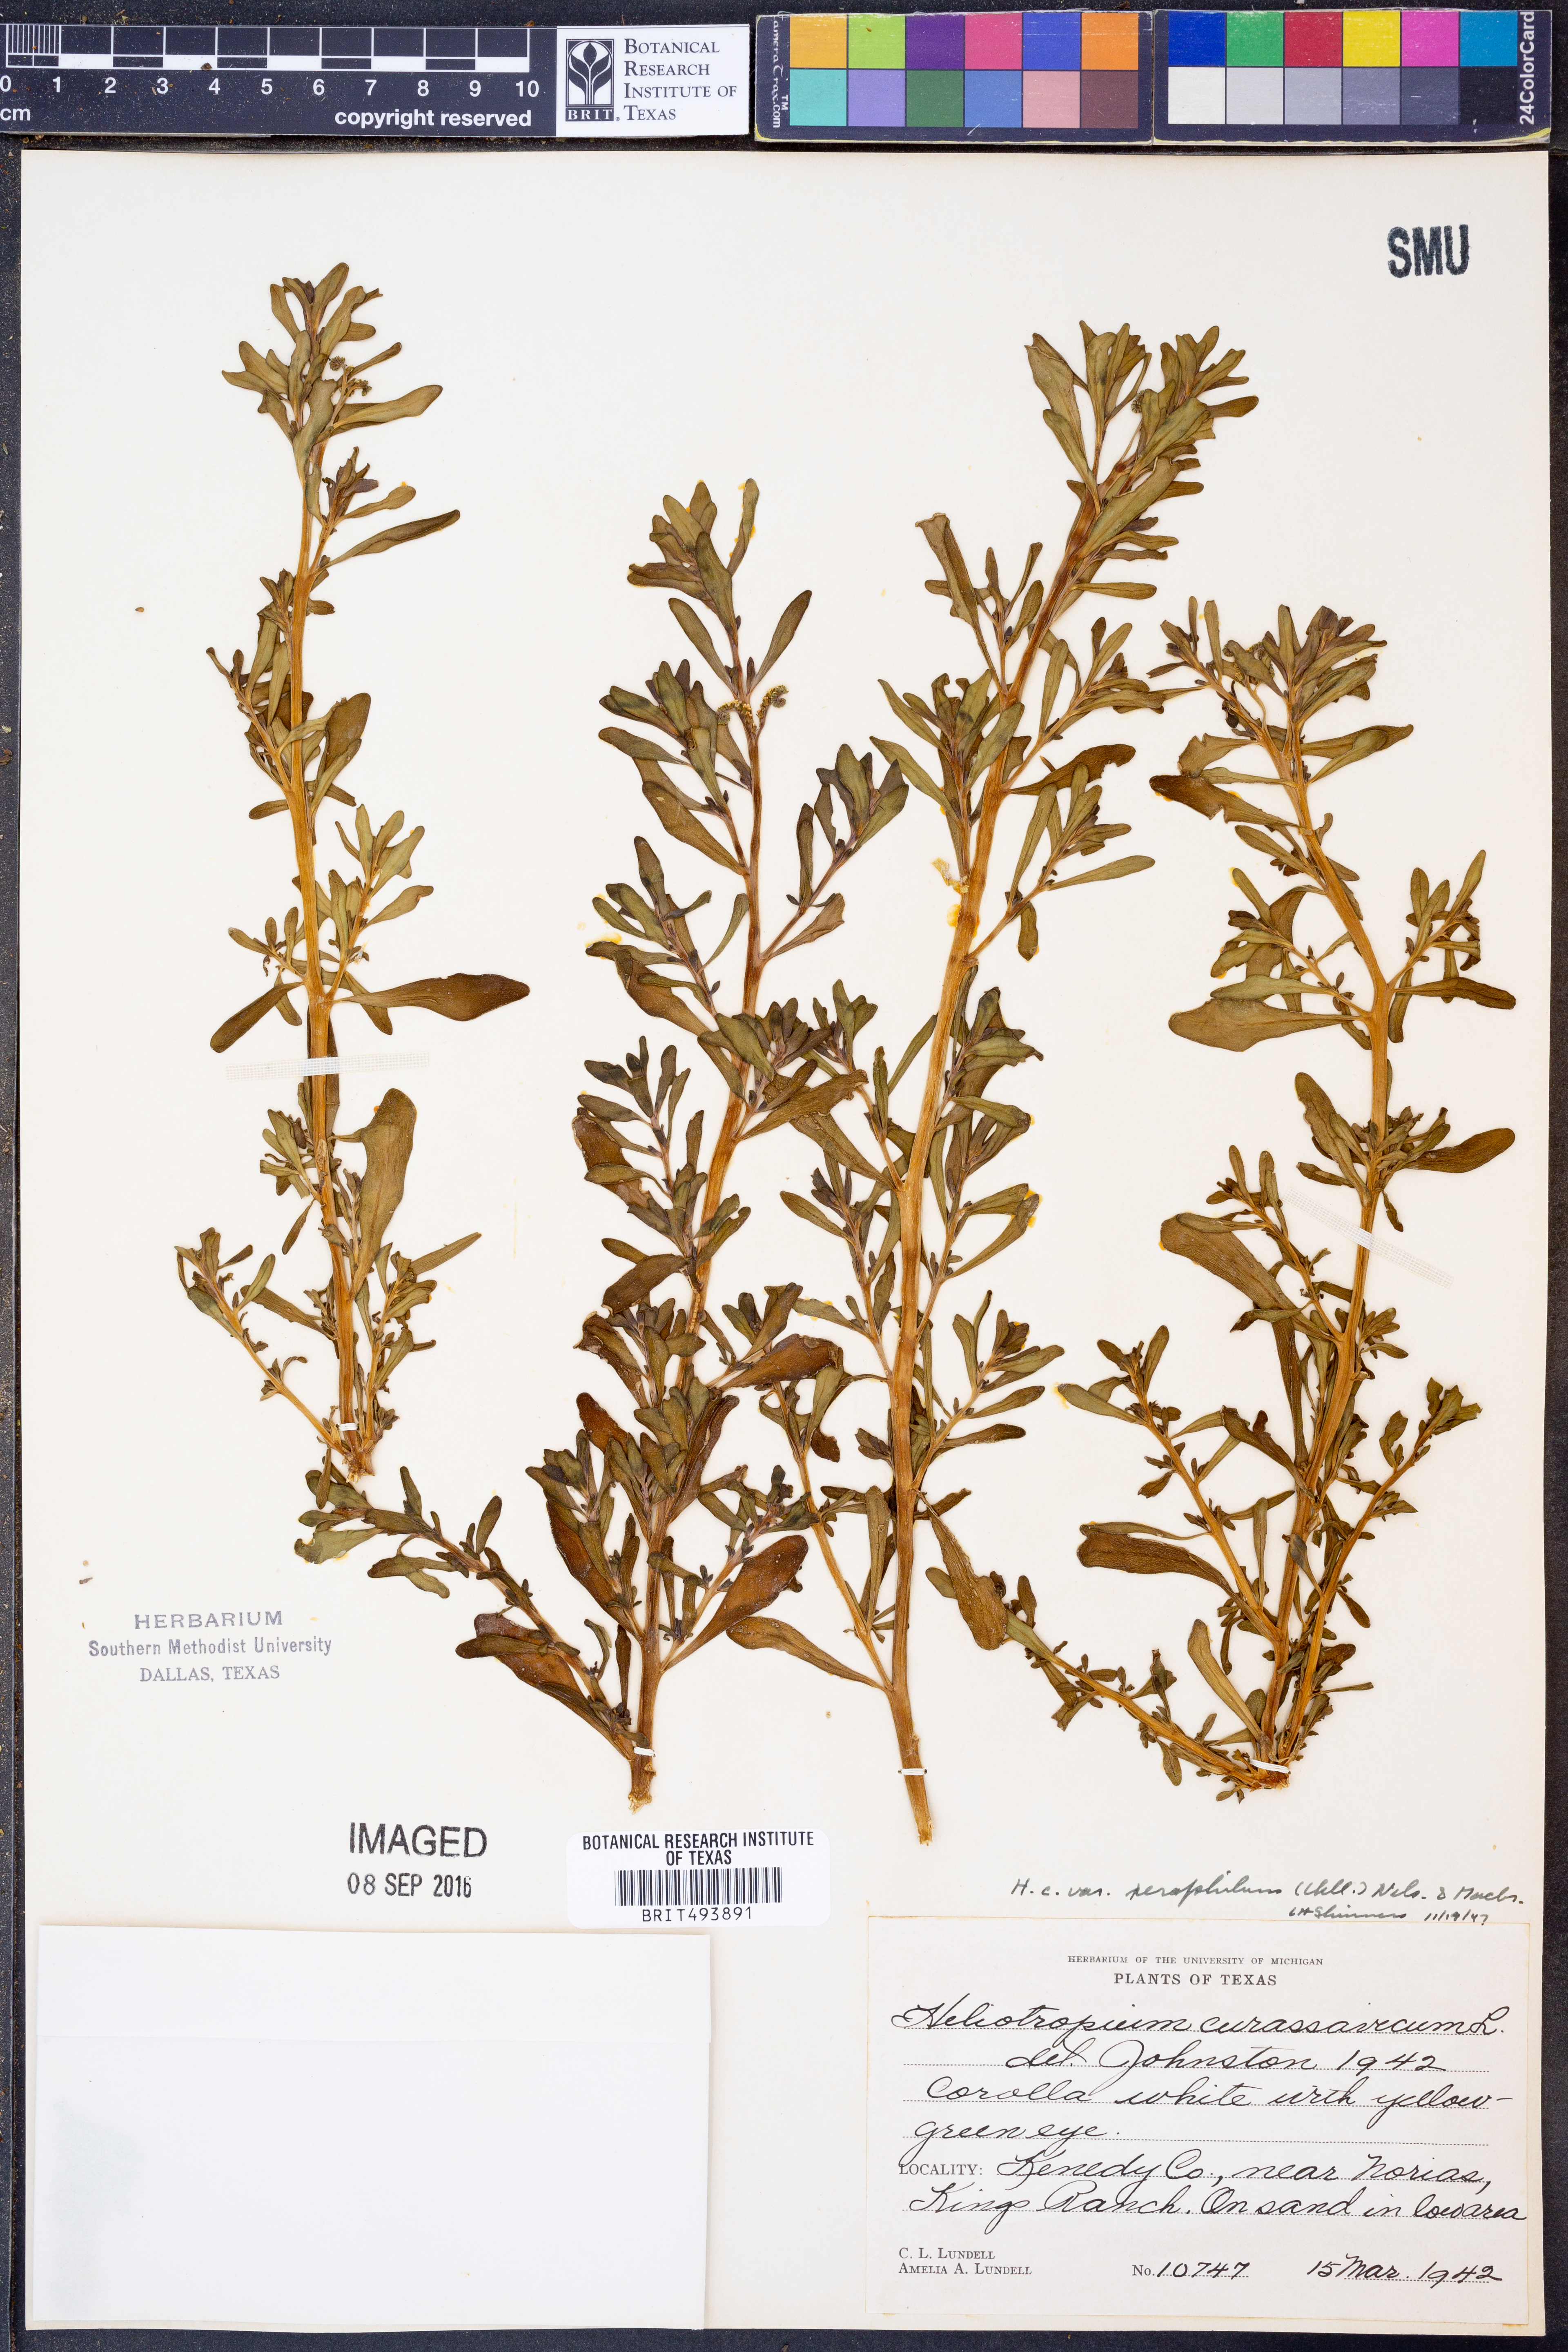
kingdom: Plantae
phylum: Tracheophyta
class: Magnoliopsida
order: Boraginales
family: Heliotropiaceae
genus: Heliotropium
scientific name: Heliotropium curassavicum
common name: Seaside heliotrope
